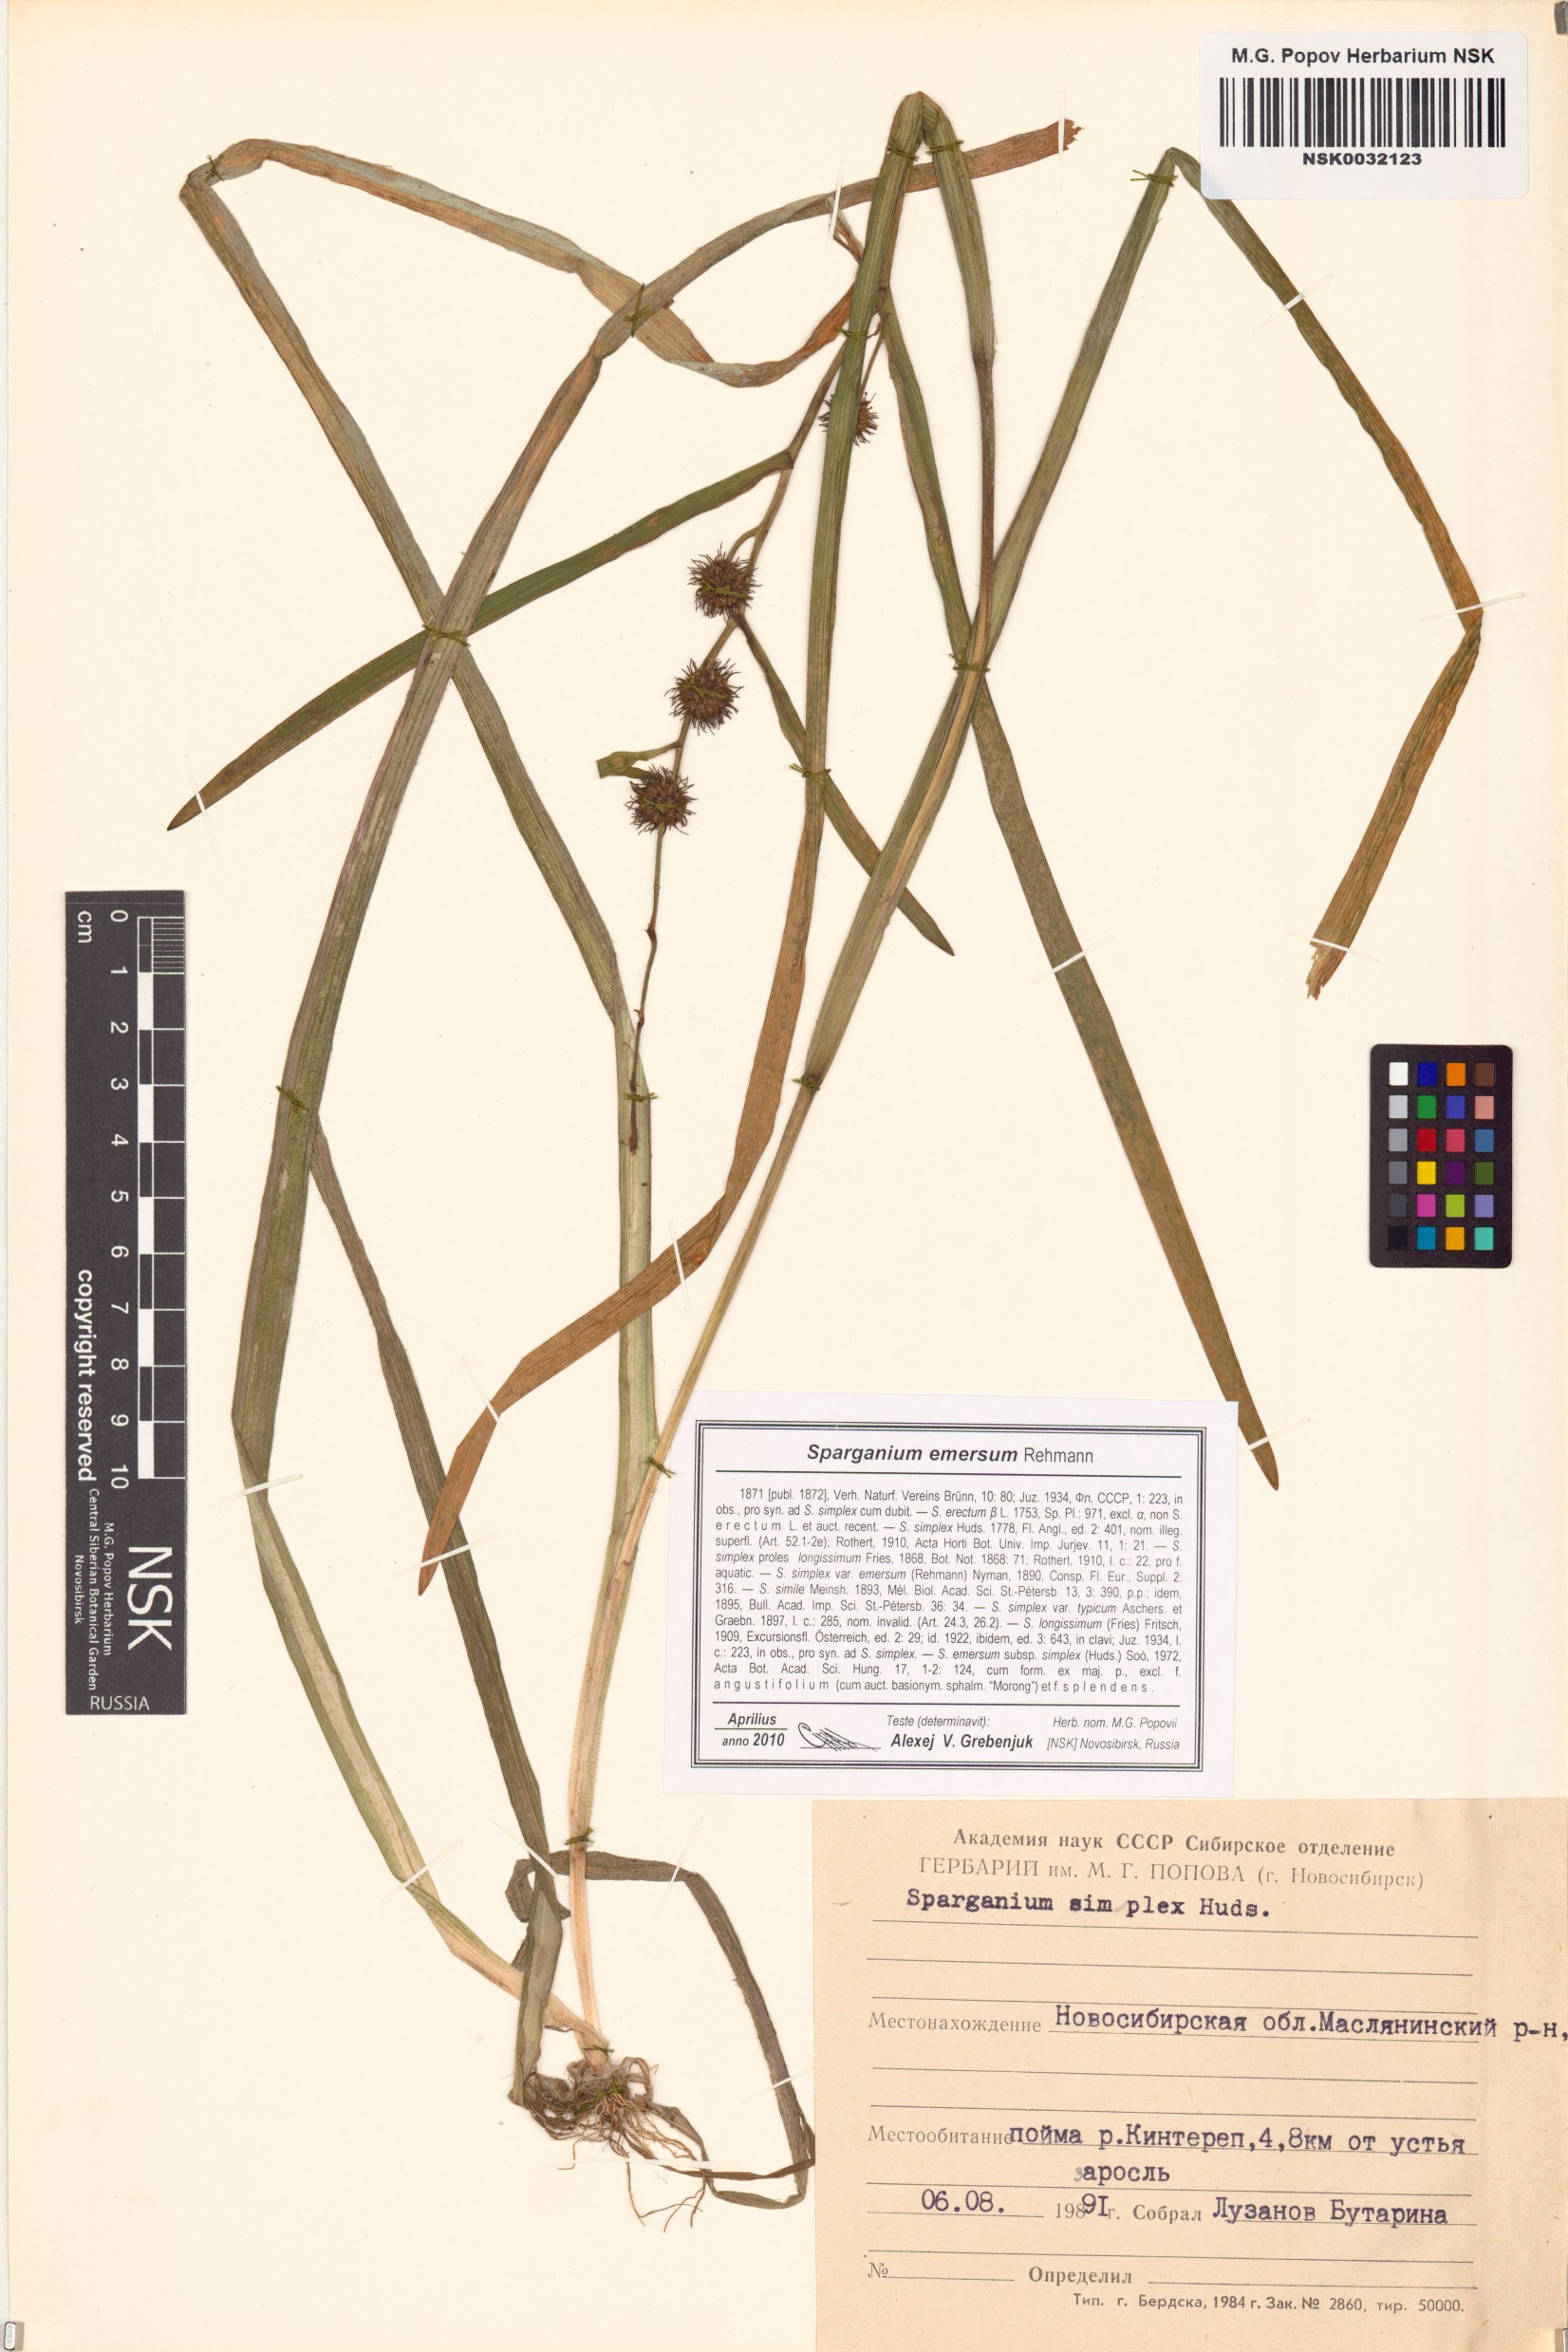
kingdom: Plantae
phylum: Tracheophyta
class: Liliopsida
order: Poales
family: Typhaceae
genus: Sparganium
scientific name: Sparganium emersum
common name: Unbranched bur-reed
